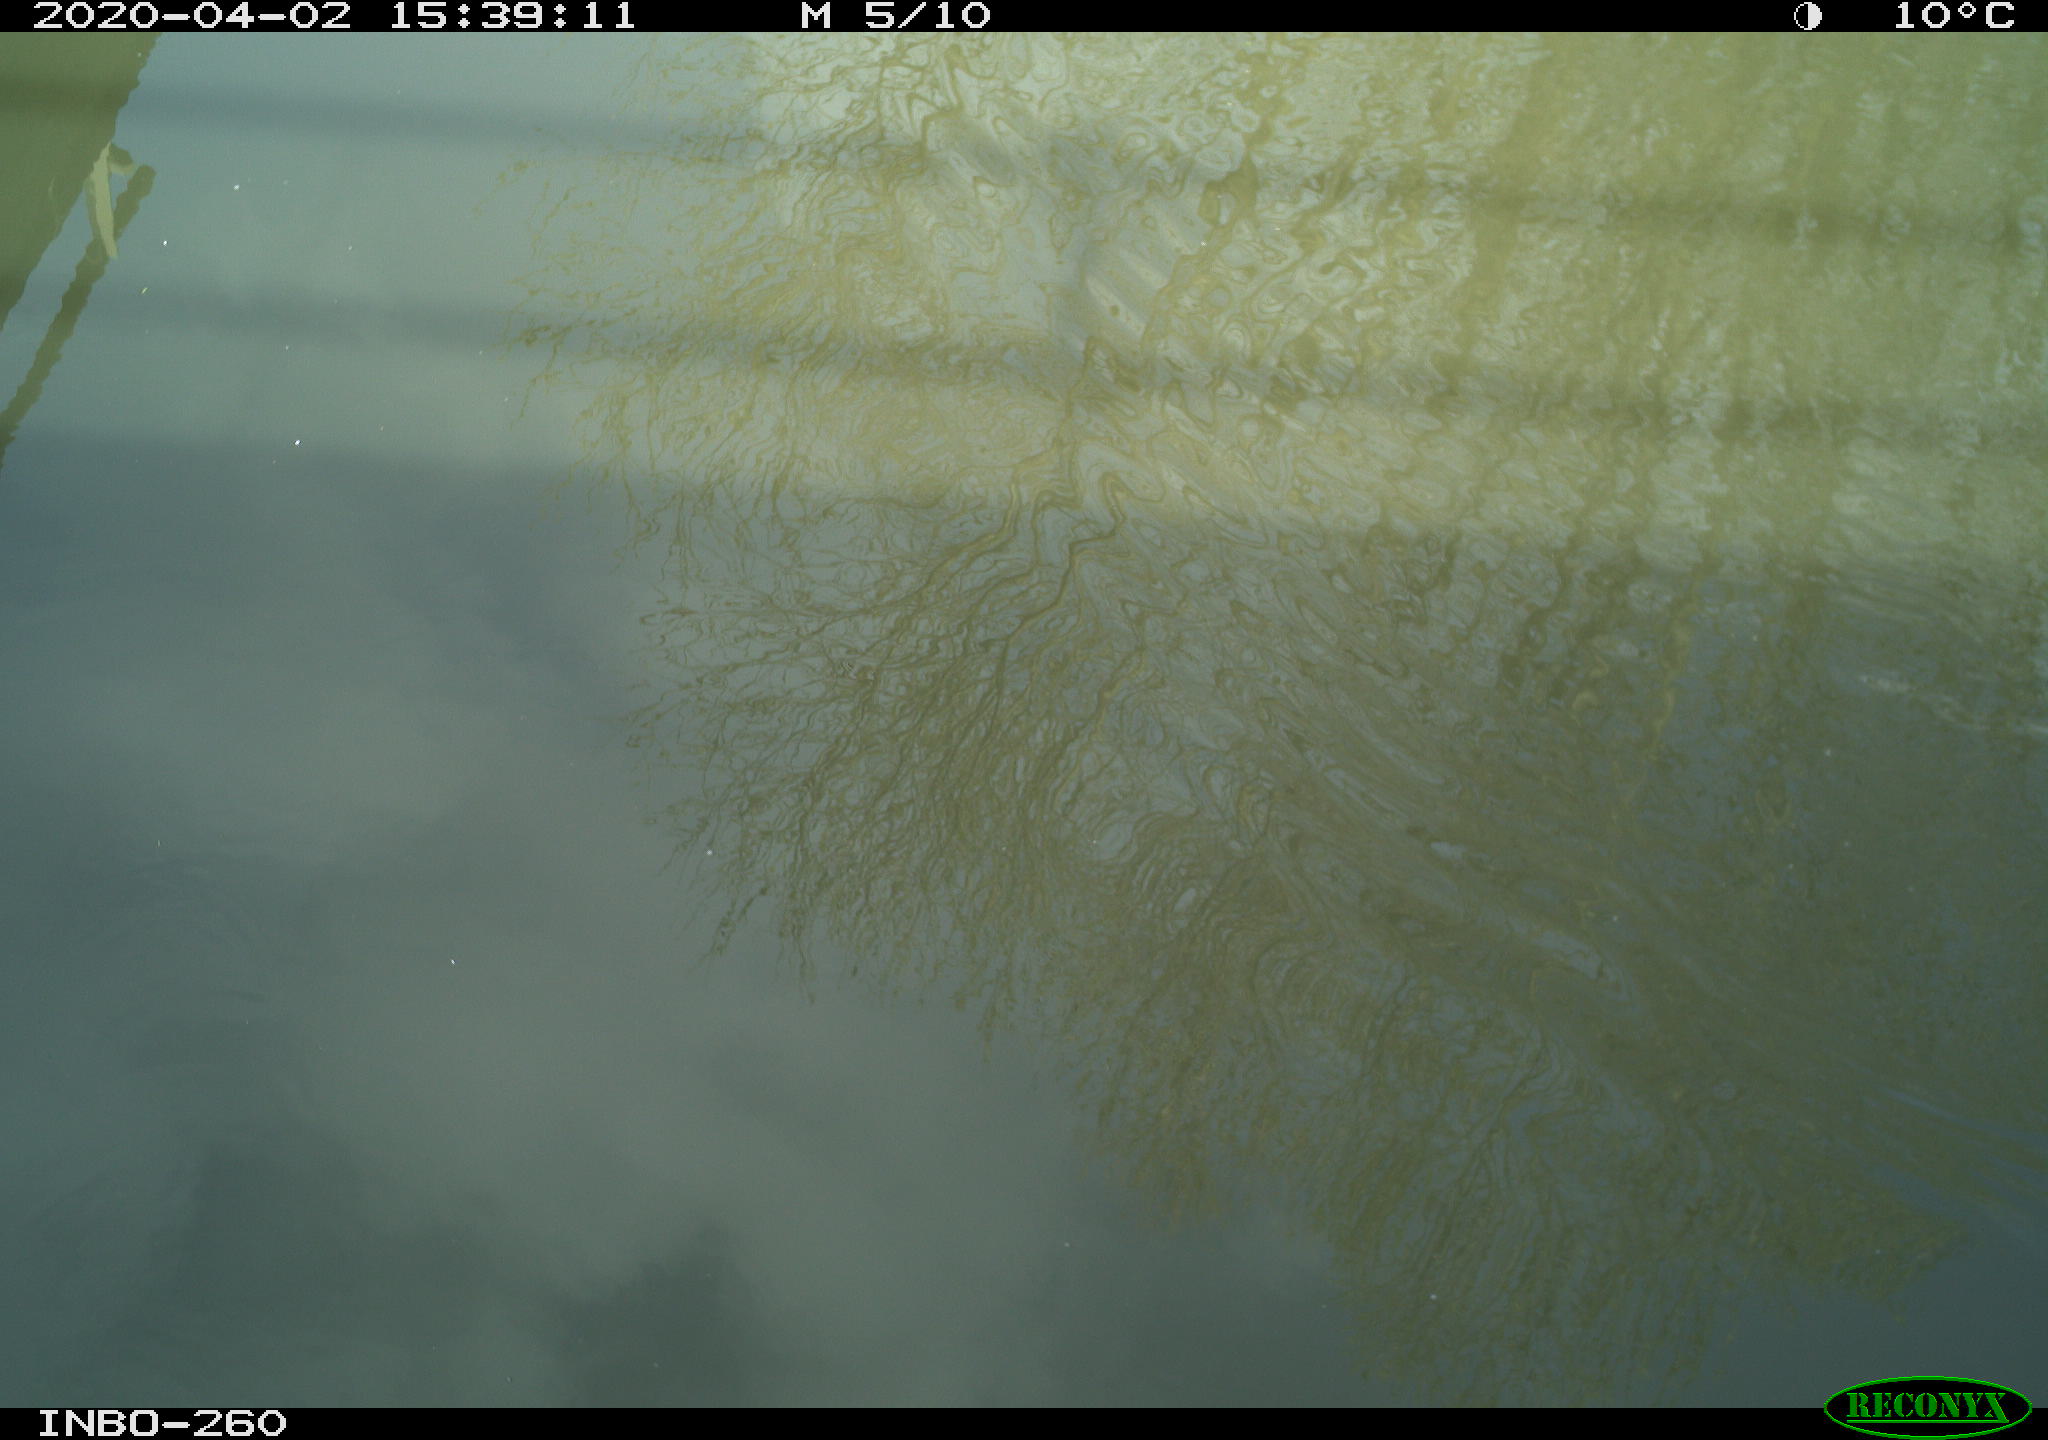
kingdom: Animalia
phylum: Chordata
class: Aves
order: Gruiformes
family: Rallidae
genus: Fulica
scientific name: Fulica atra
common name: Eurasian coot
